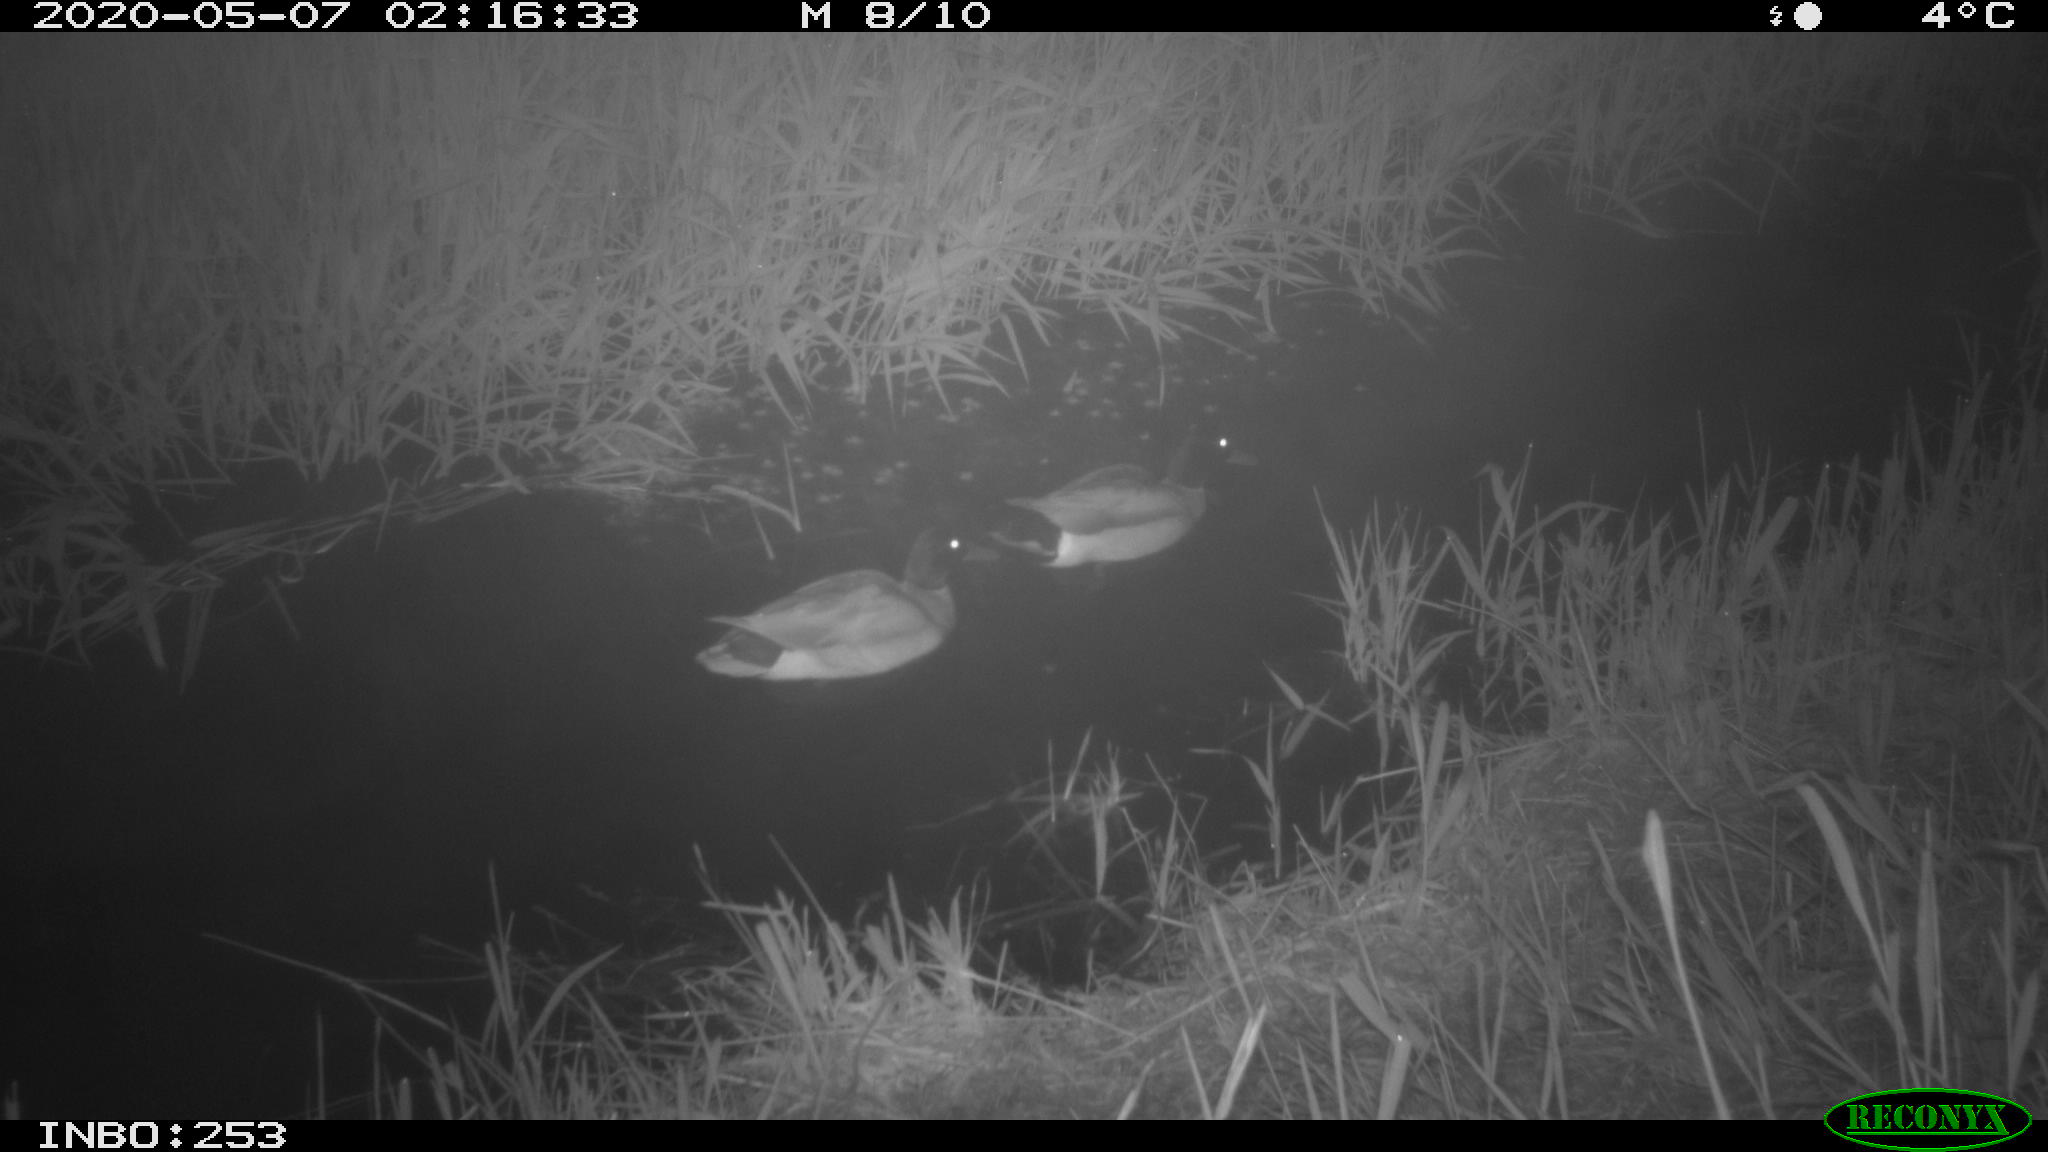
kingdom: Animalia
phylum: Chordata
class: Aves
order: Anseriformes
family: Anatidae
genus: Anas
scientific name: Anas platyrhynchos
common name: Mallard
